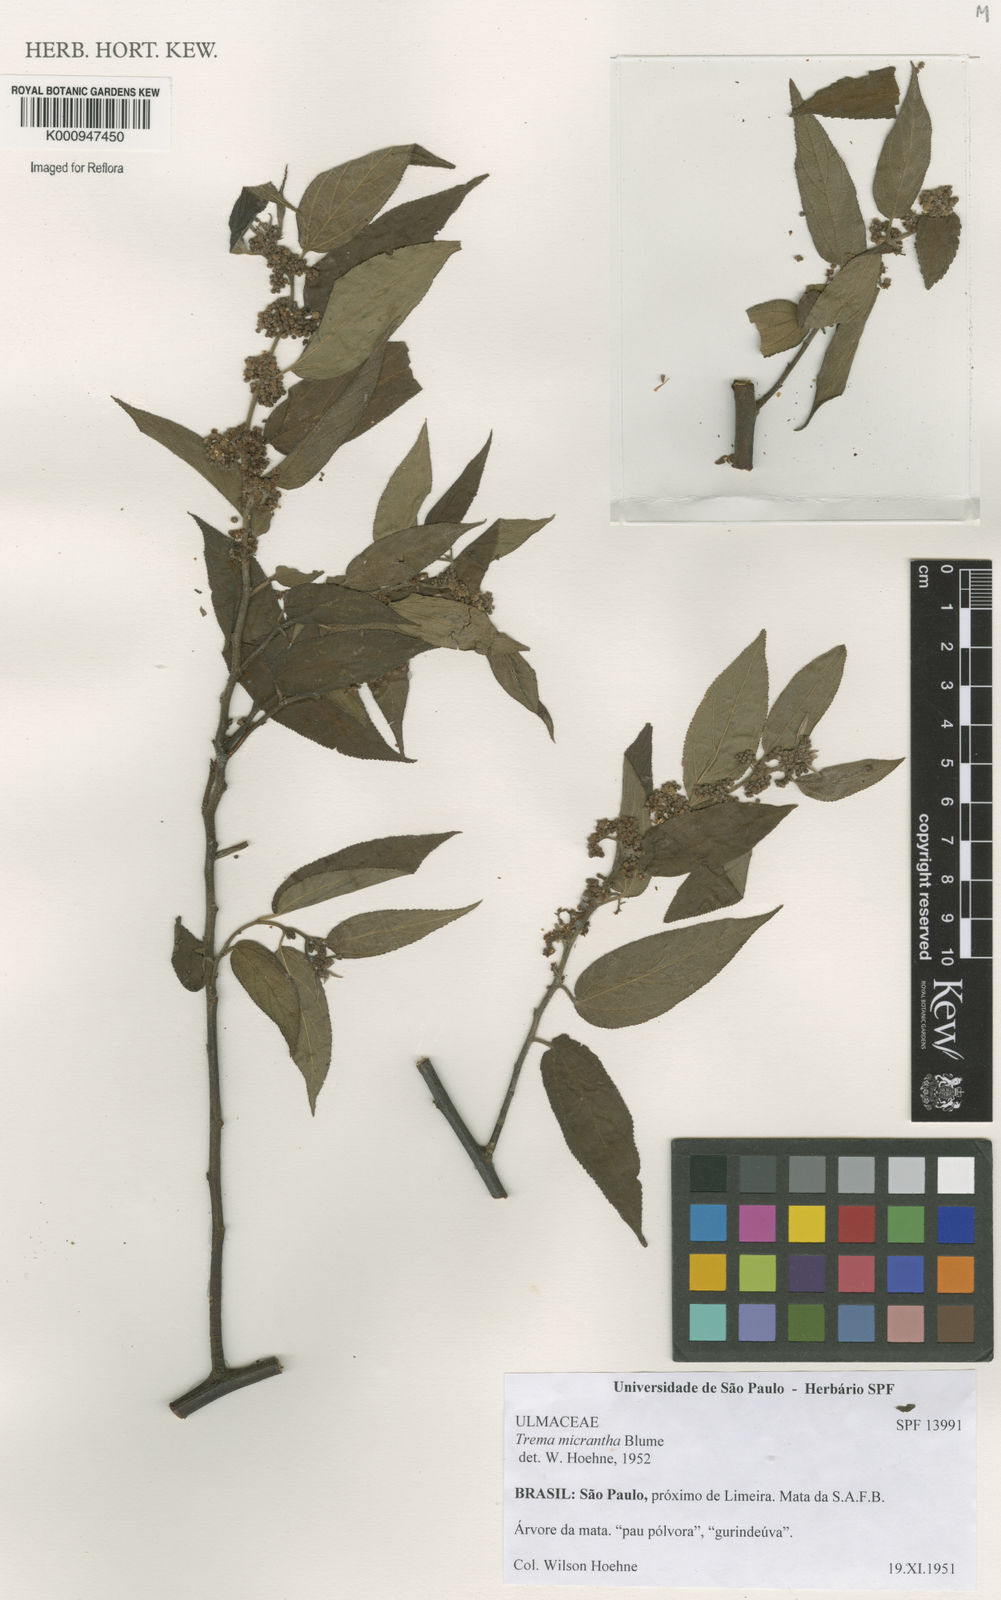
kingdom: Plantae
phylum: Tracheophyta
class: Magnoliopsida
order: Rosales
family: Cannabaceae
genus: Trema
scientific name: Trema micranthum
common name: Jamaican nettletree
